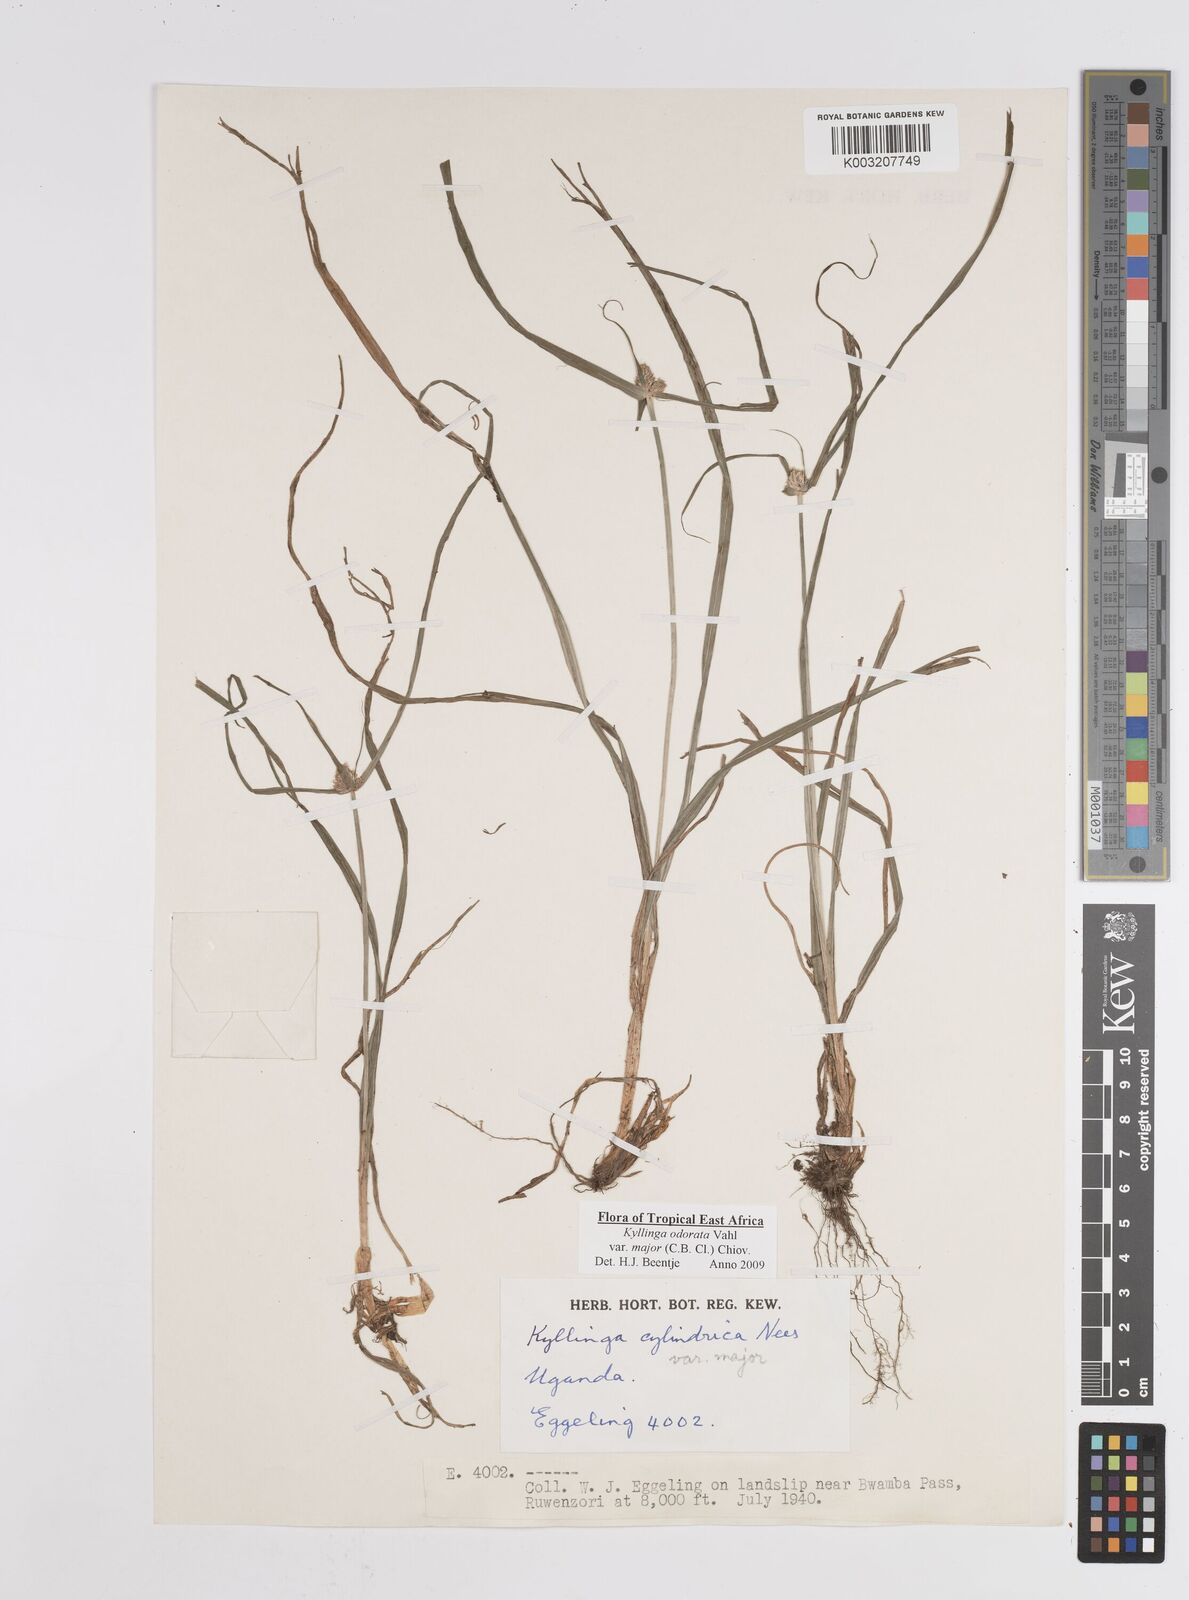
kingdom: Plantae
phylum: Tracheophyta
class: Liliopsida
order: Poales
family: Cyperaceae
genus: Cyperus
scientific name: Cyperus
